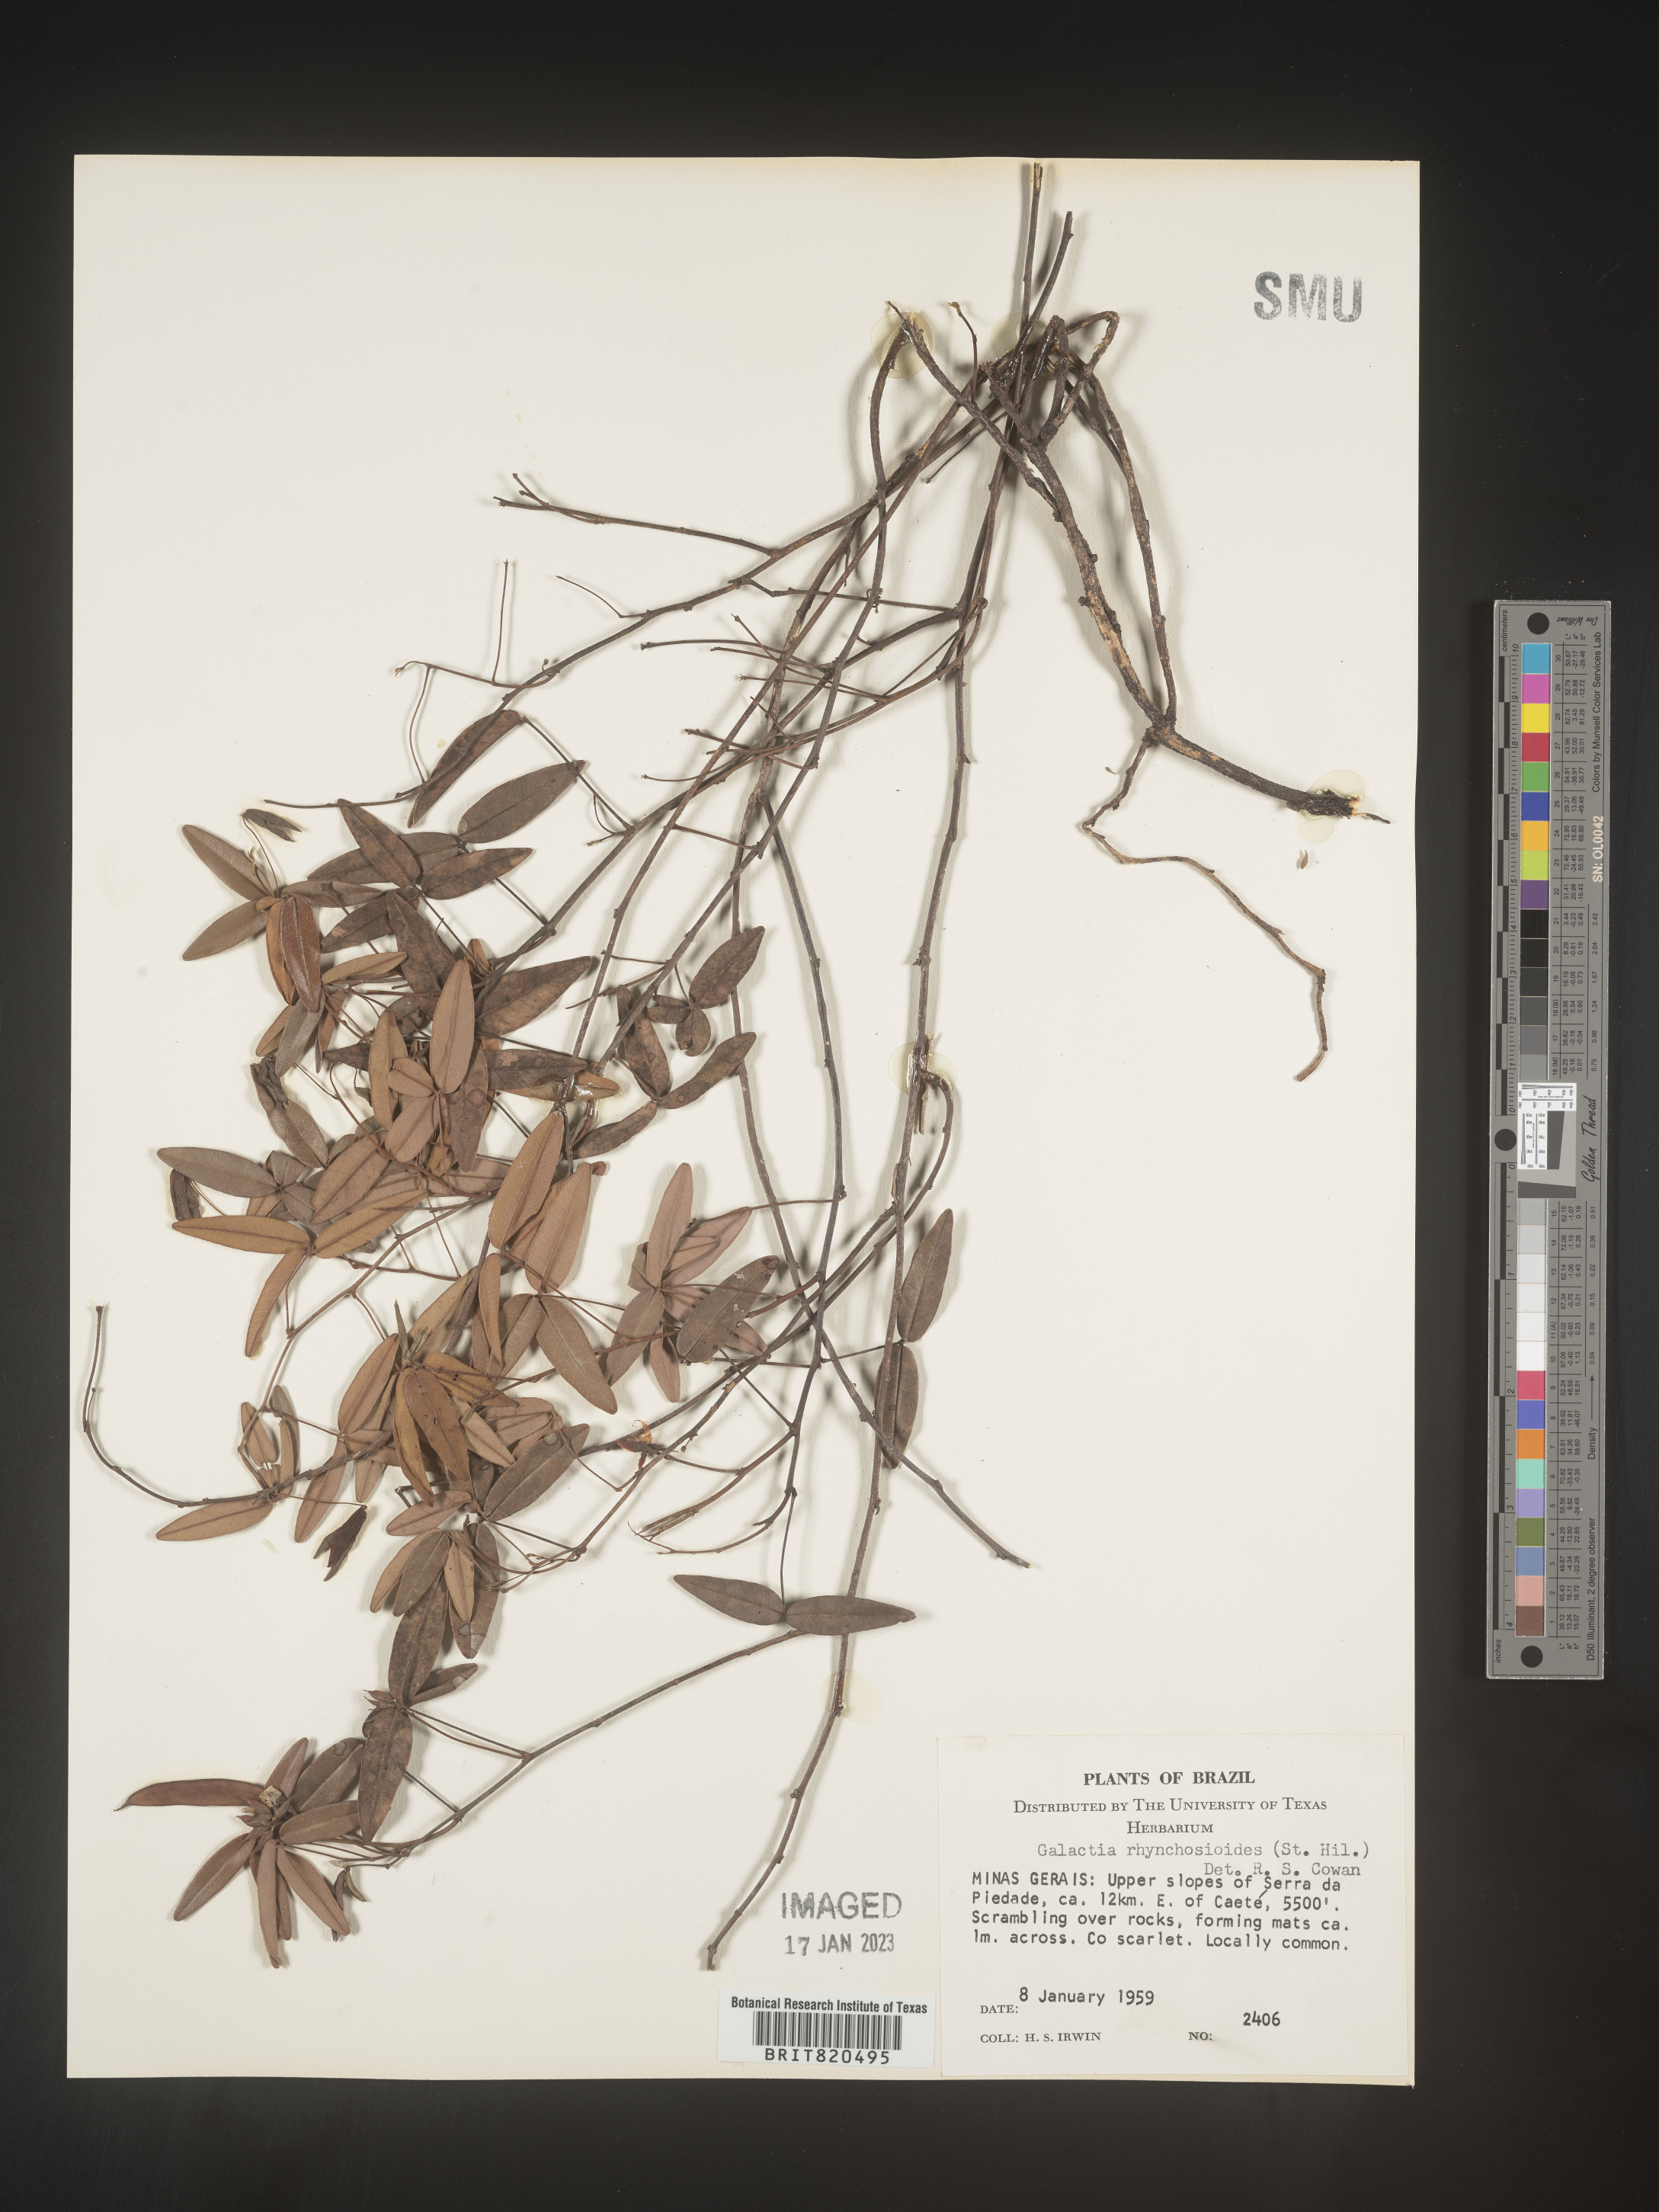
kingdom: Plantae
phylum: Tracheophyta
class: Magnoliopsida
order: Fabales
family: Fabaceae
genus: Galactia
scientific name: Galactia
